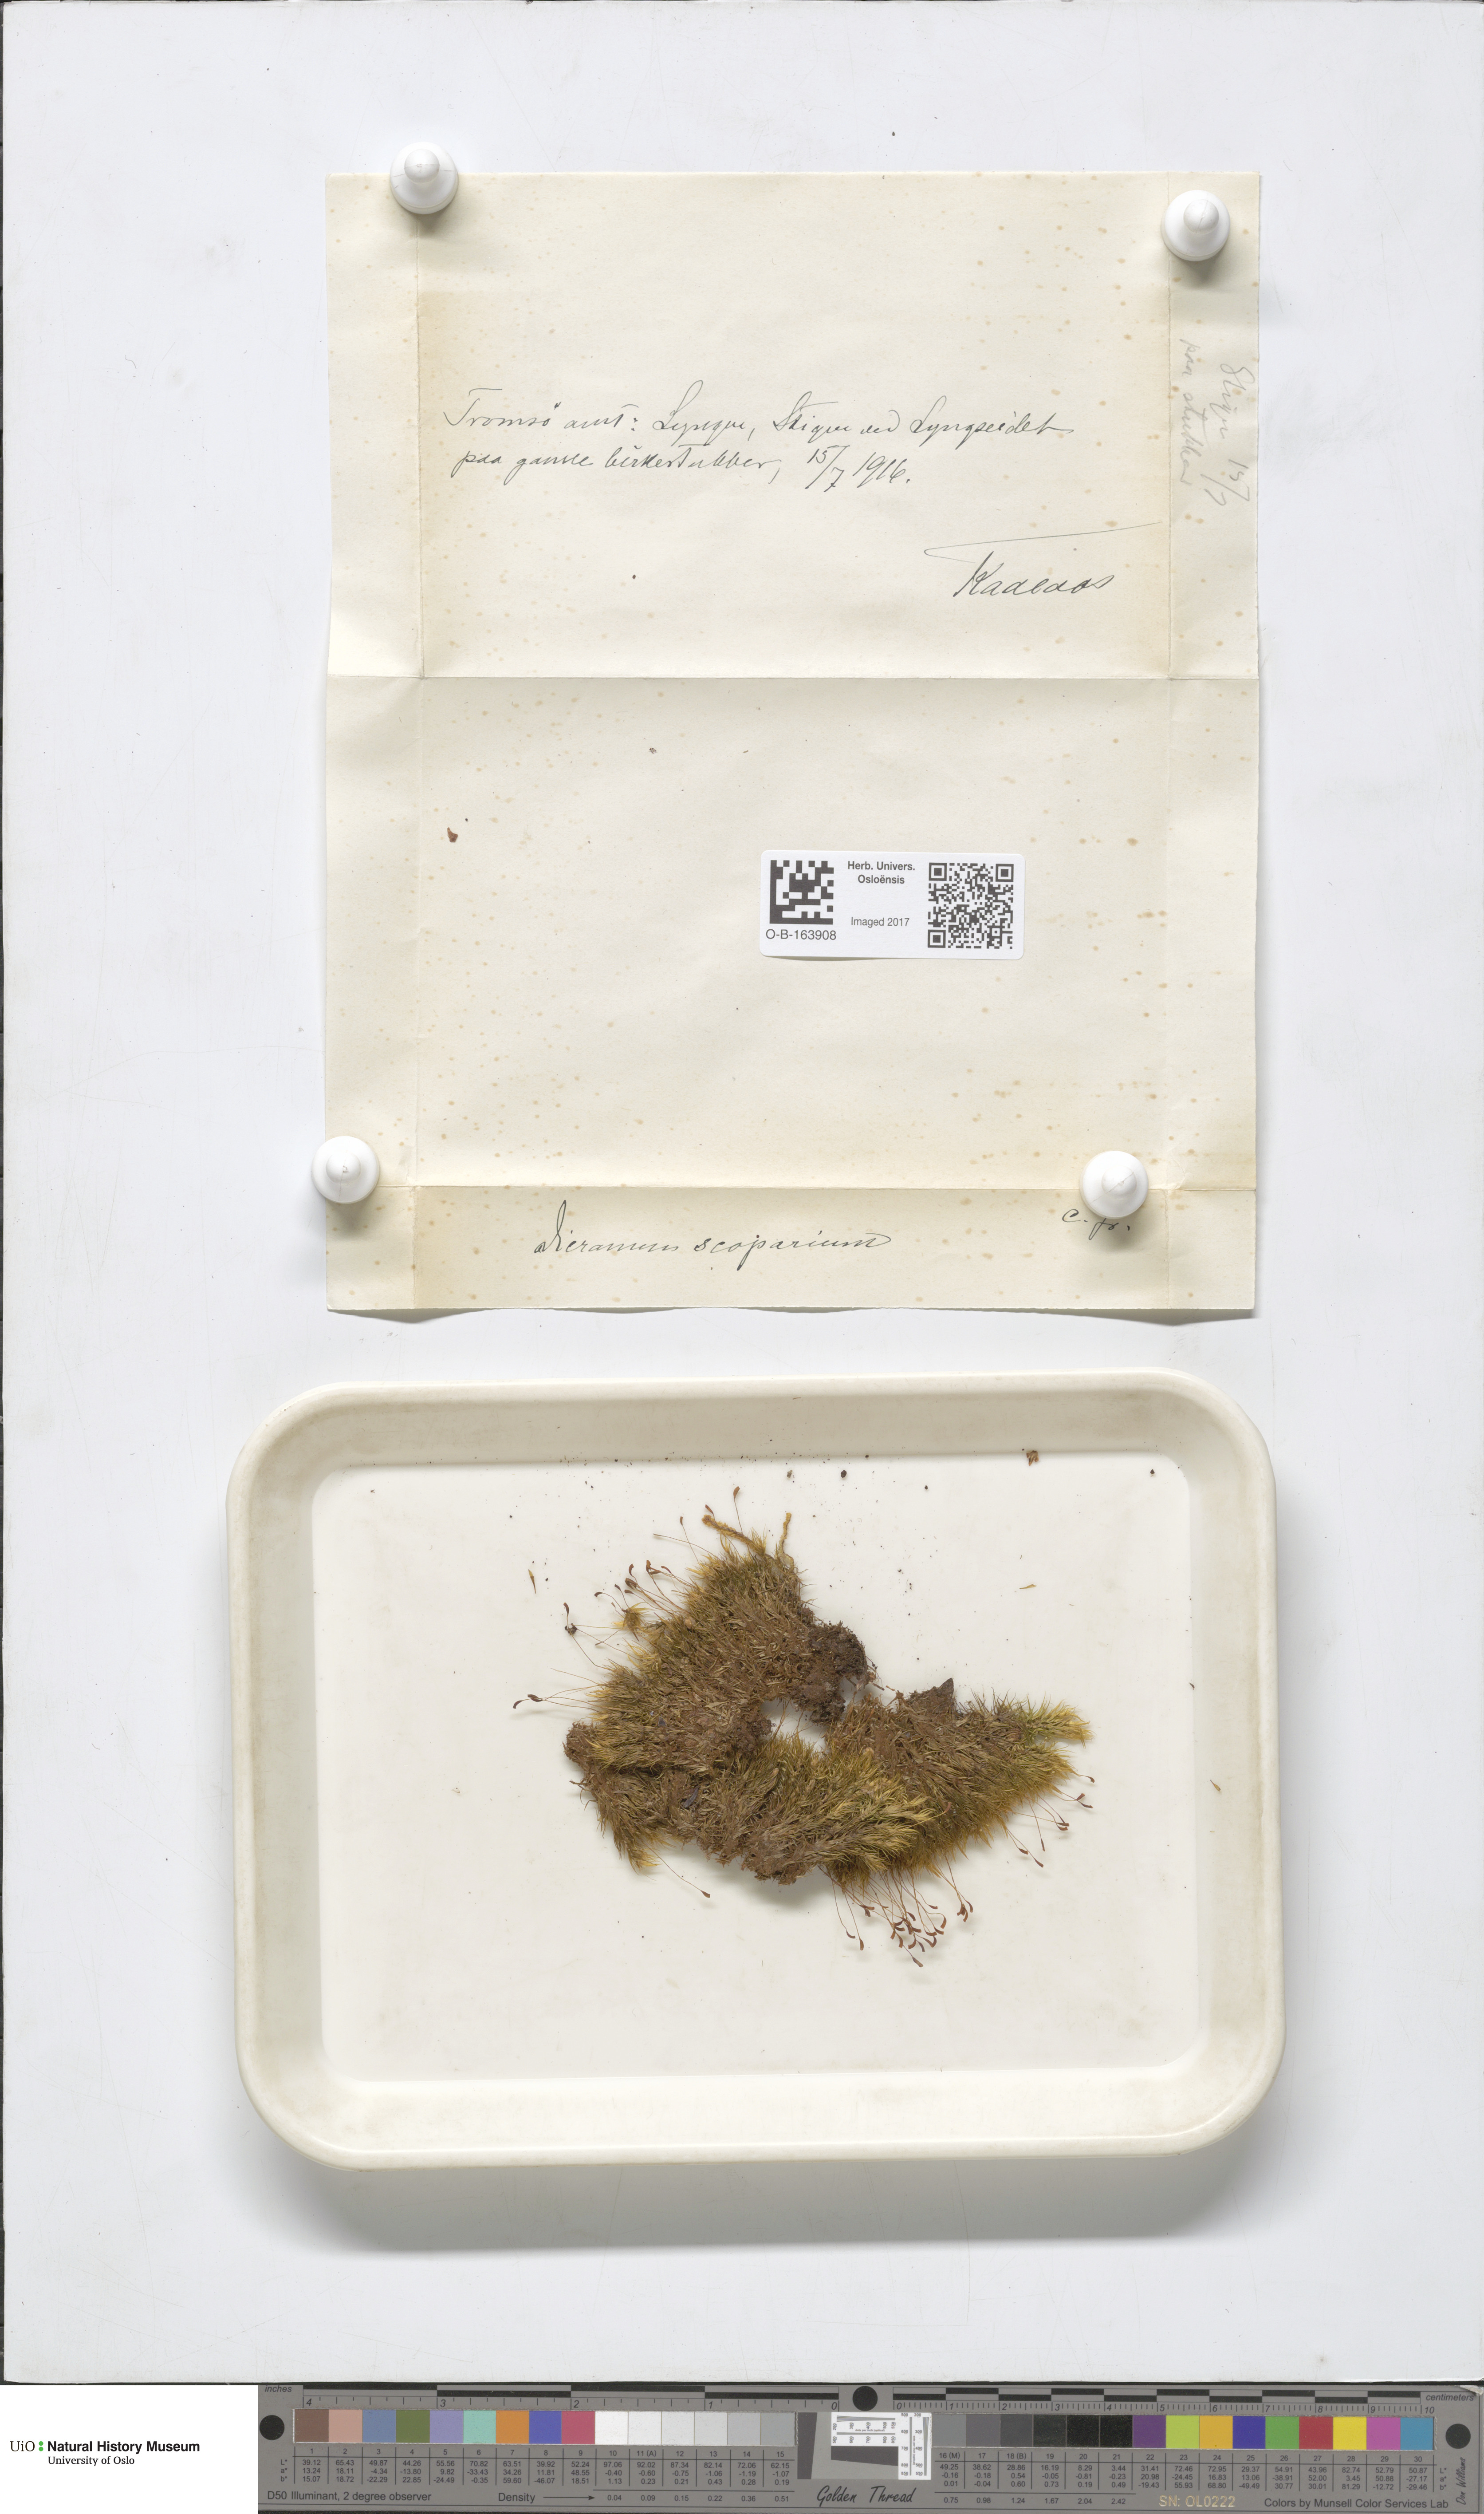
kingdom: Plantae
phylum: Bryophyta
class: Bryopsida
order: Dicranales
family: Dicranaceae
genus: Dicranum
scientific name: Dicranum scoparium
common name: Broom fork-moss
